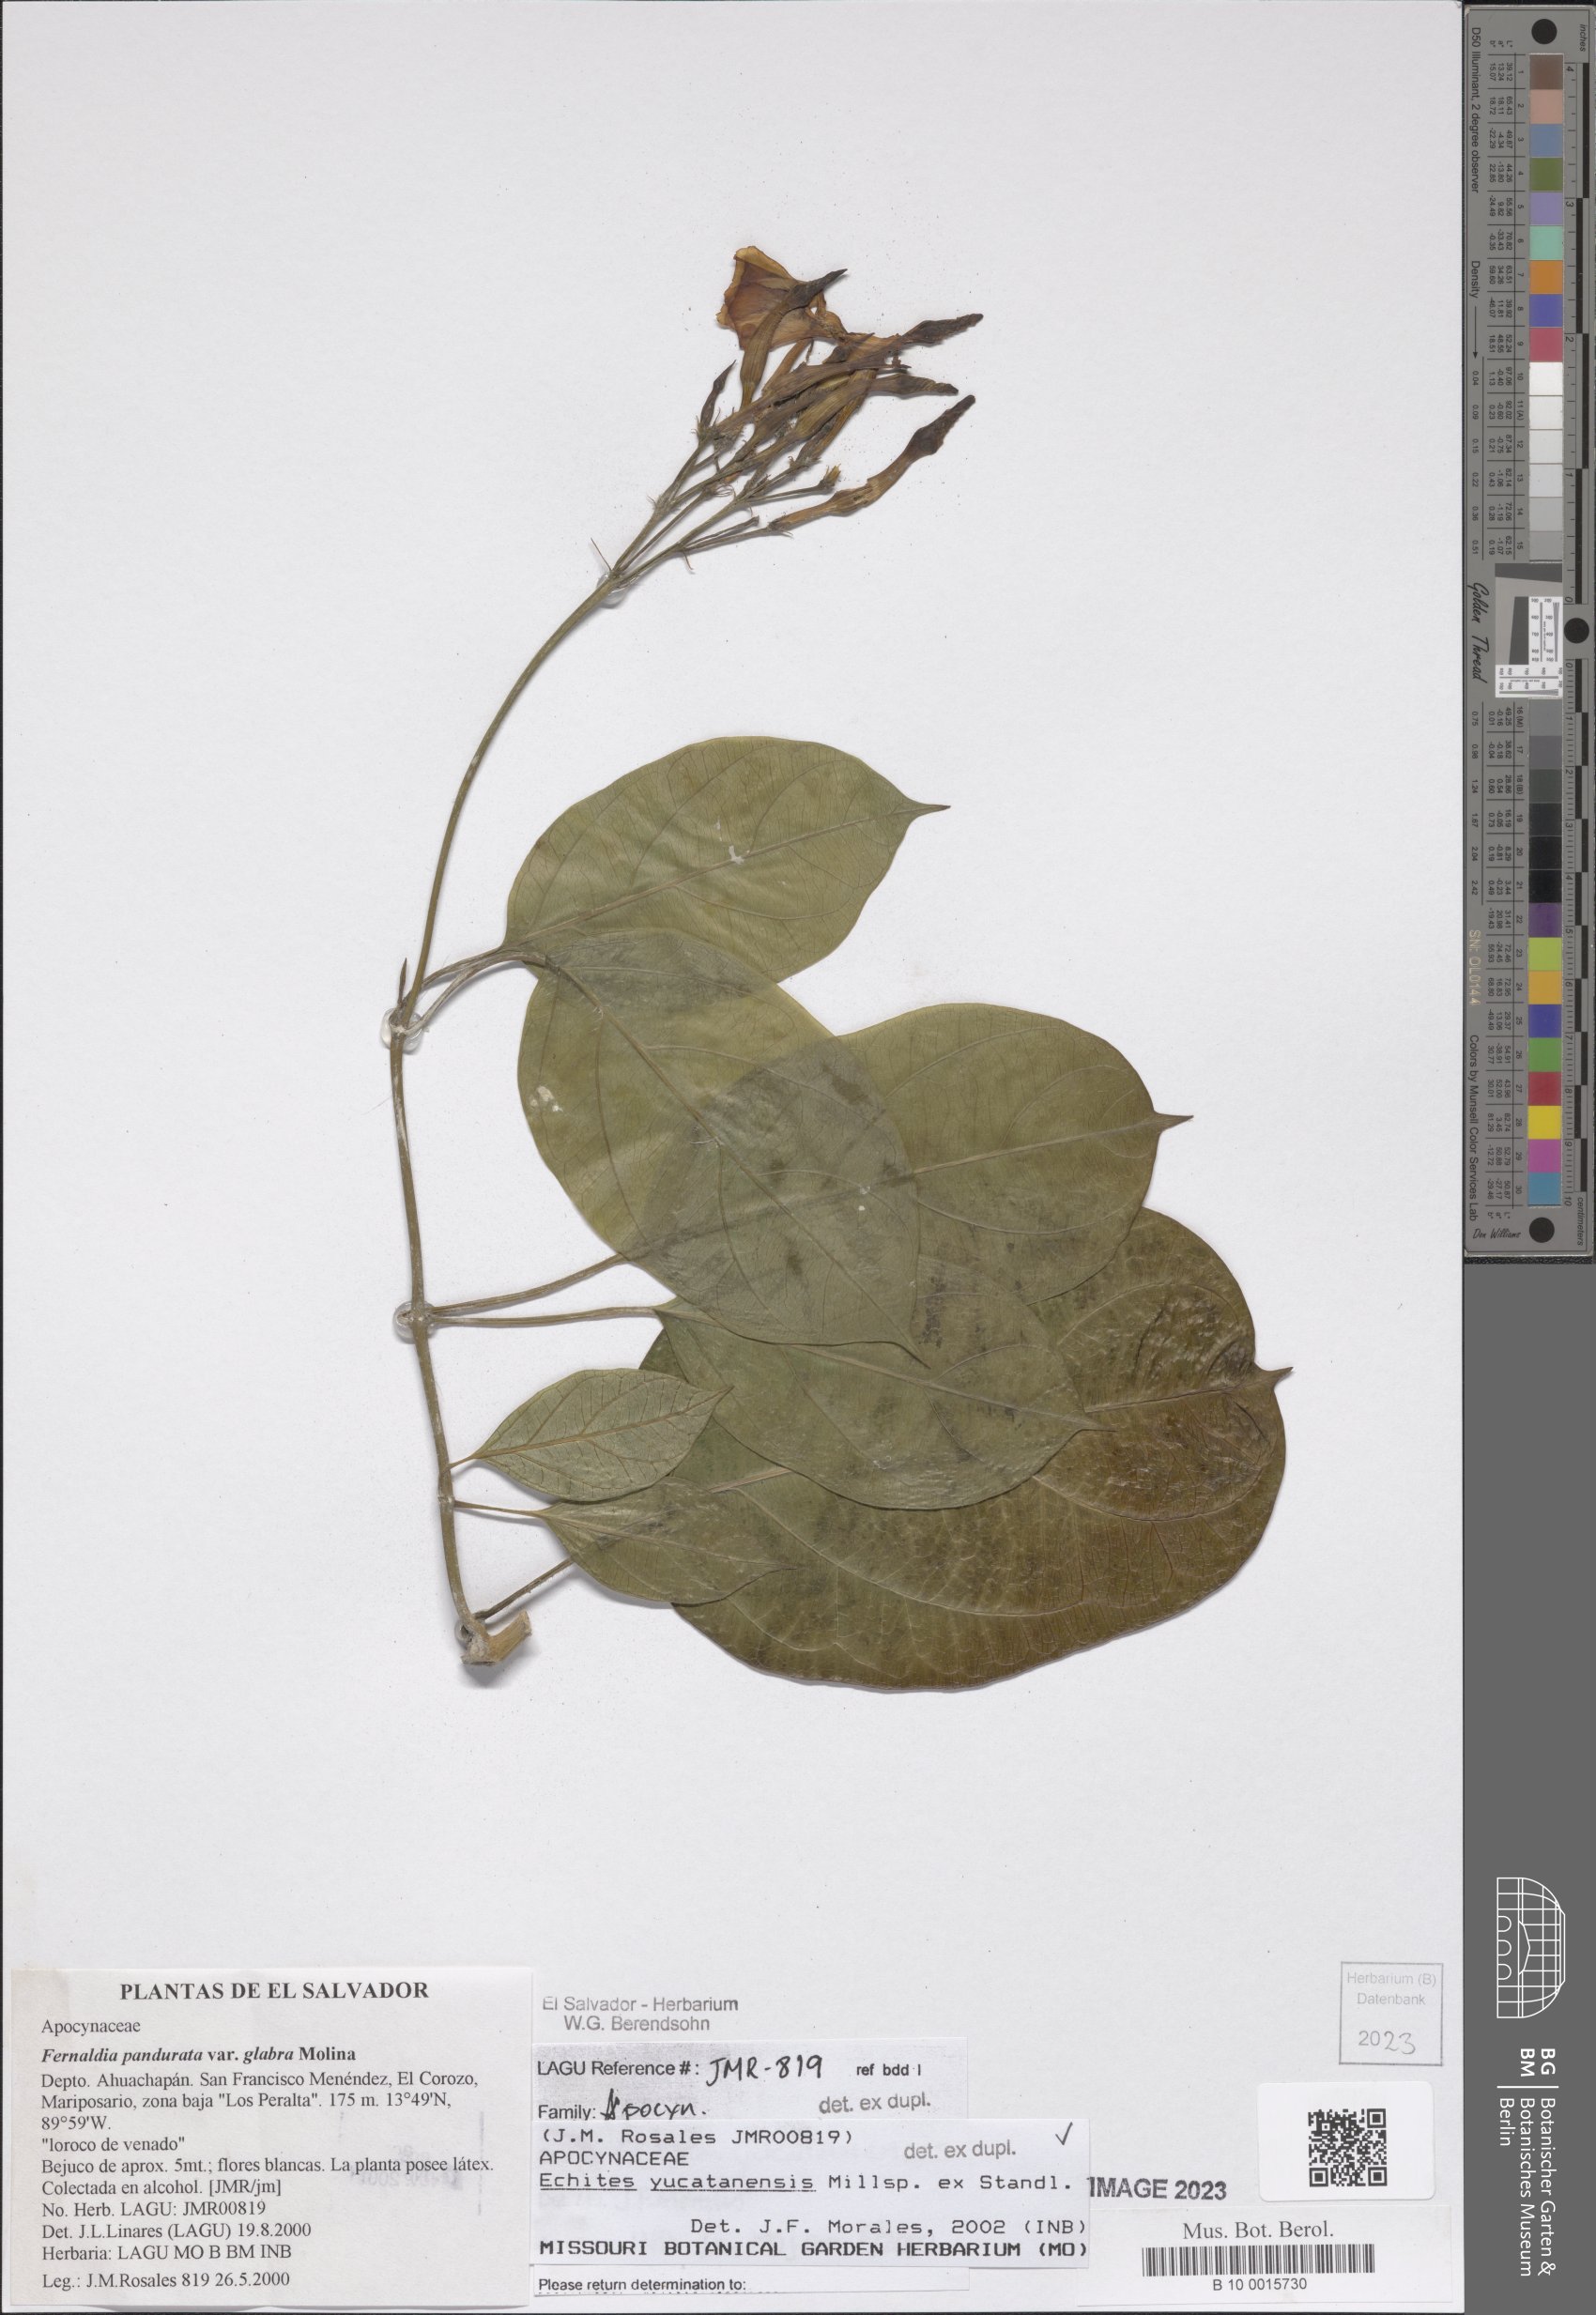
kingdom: Plantae
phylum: Tracheophyta
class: Magnoliopsida
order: Gentianales
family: Apocynaceae
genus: Echites
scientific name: Echites yucatanensis
